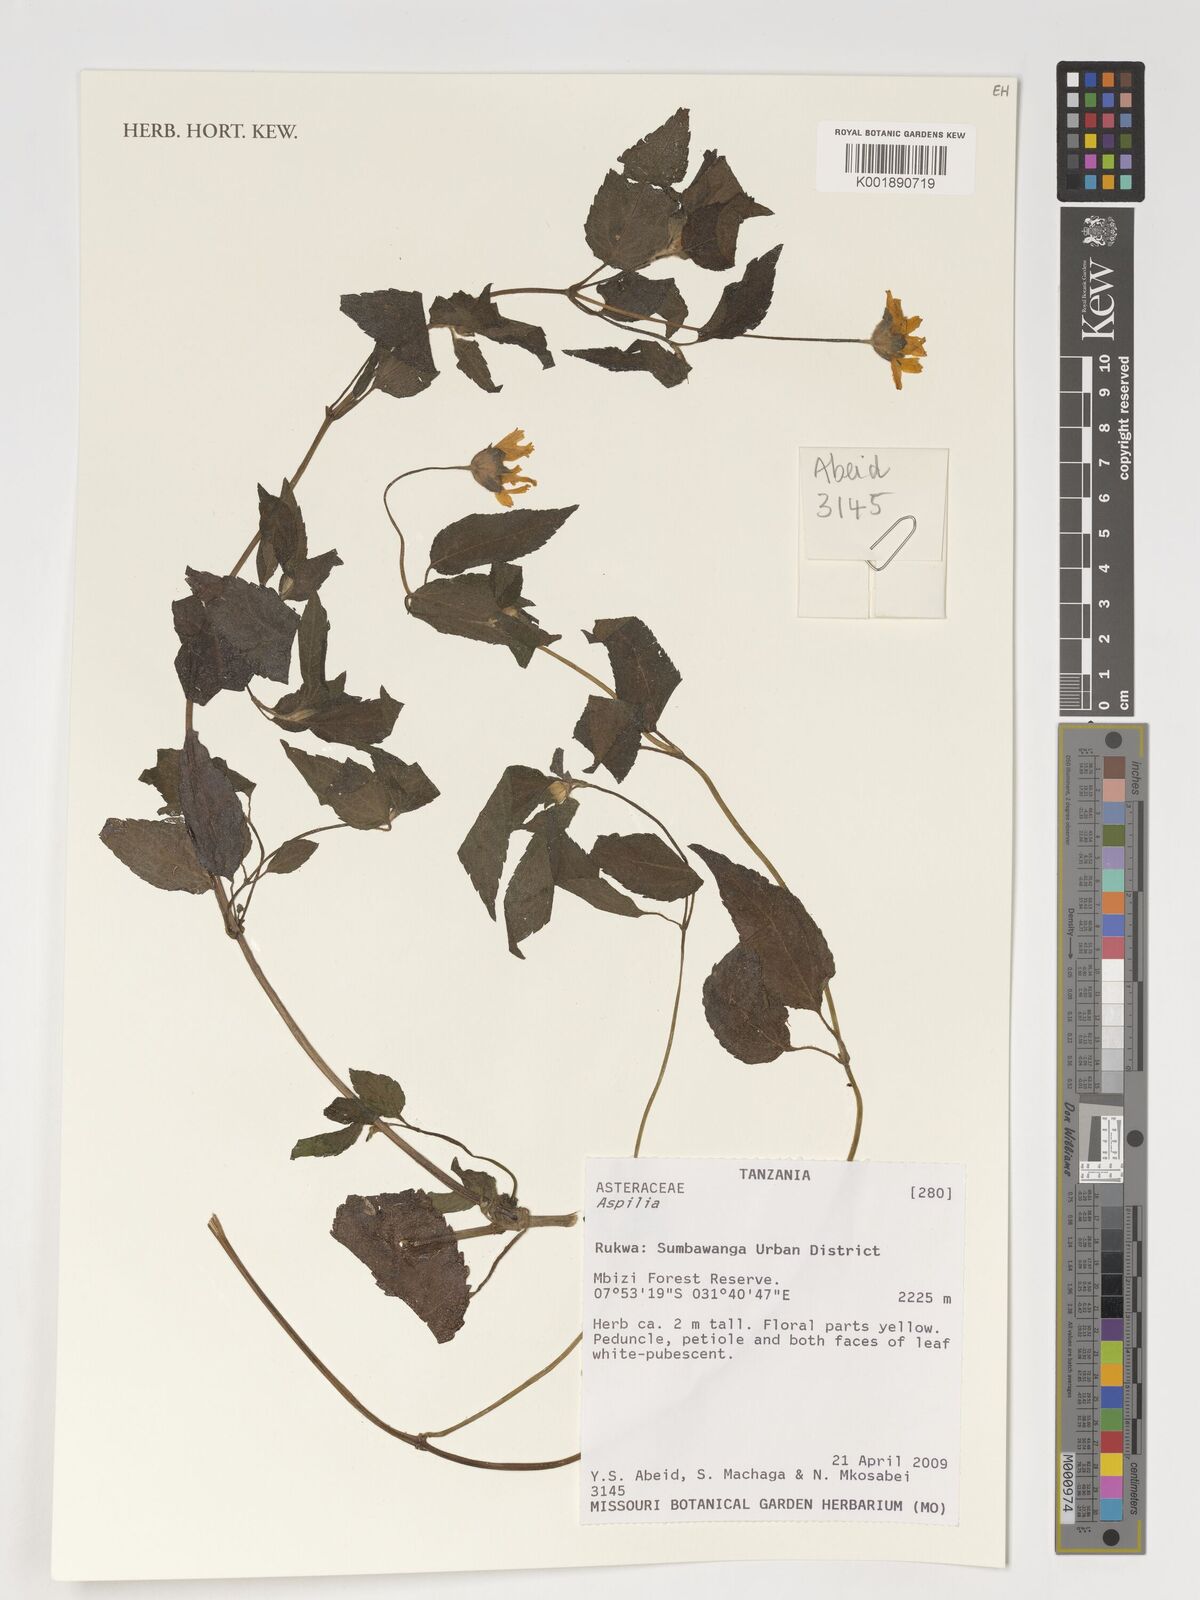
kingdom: Plantae
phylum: Tracheophyta
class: Magnoliopsida
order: Asterales
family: Asteraceae
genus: Aspilia
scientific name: Aspilia
